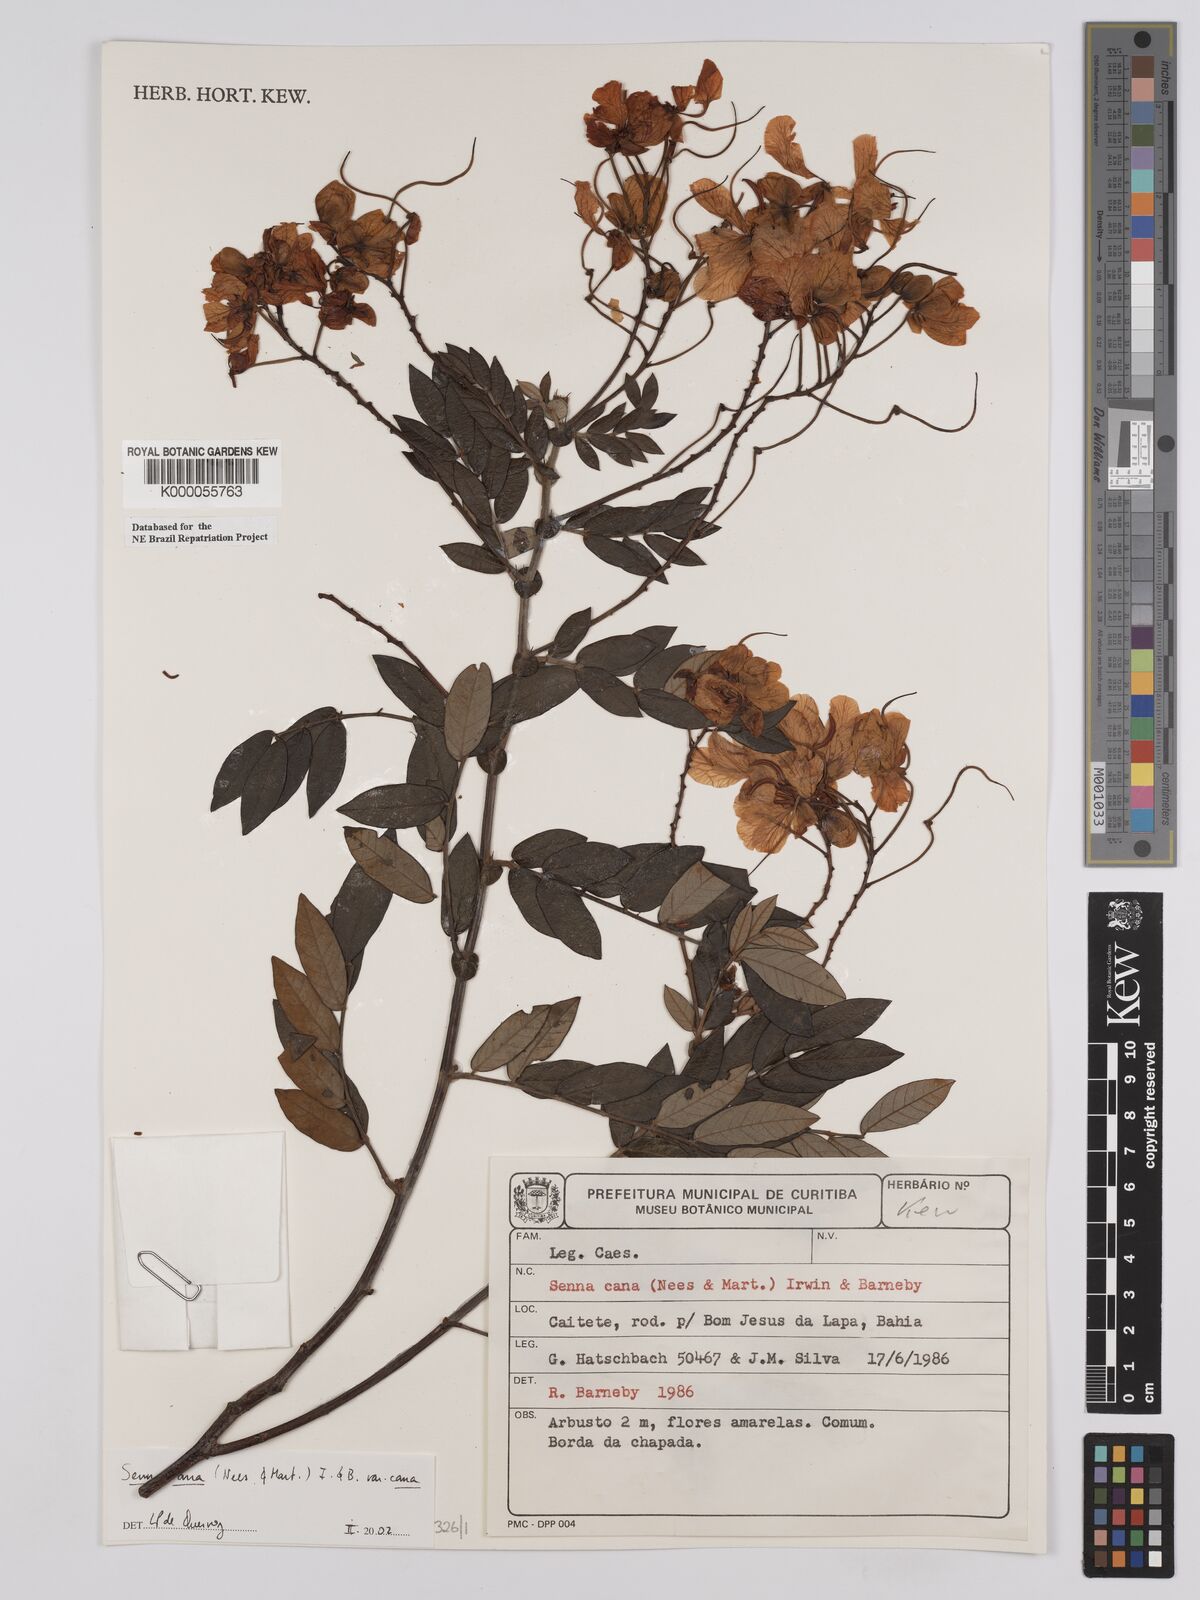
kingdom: Plantae
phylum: Tracheophyta
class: Magnoliopsida
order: Fabales
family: Fabaceae
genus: Senna
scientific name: Senna cana
